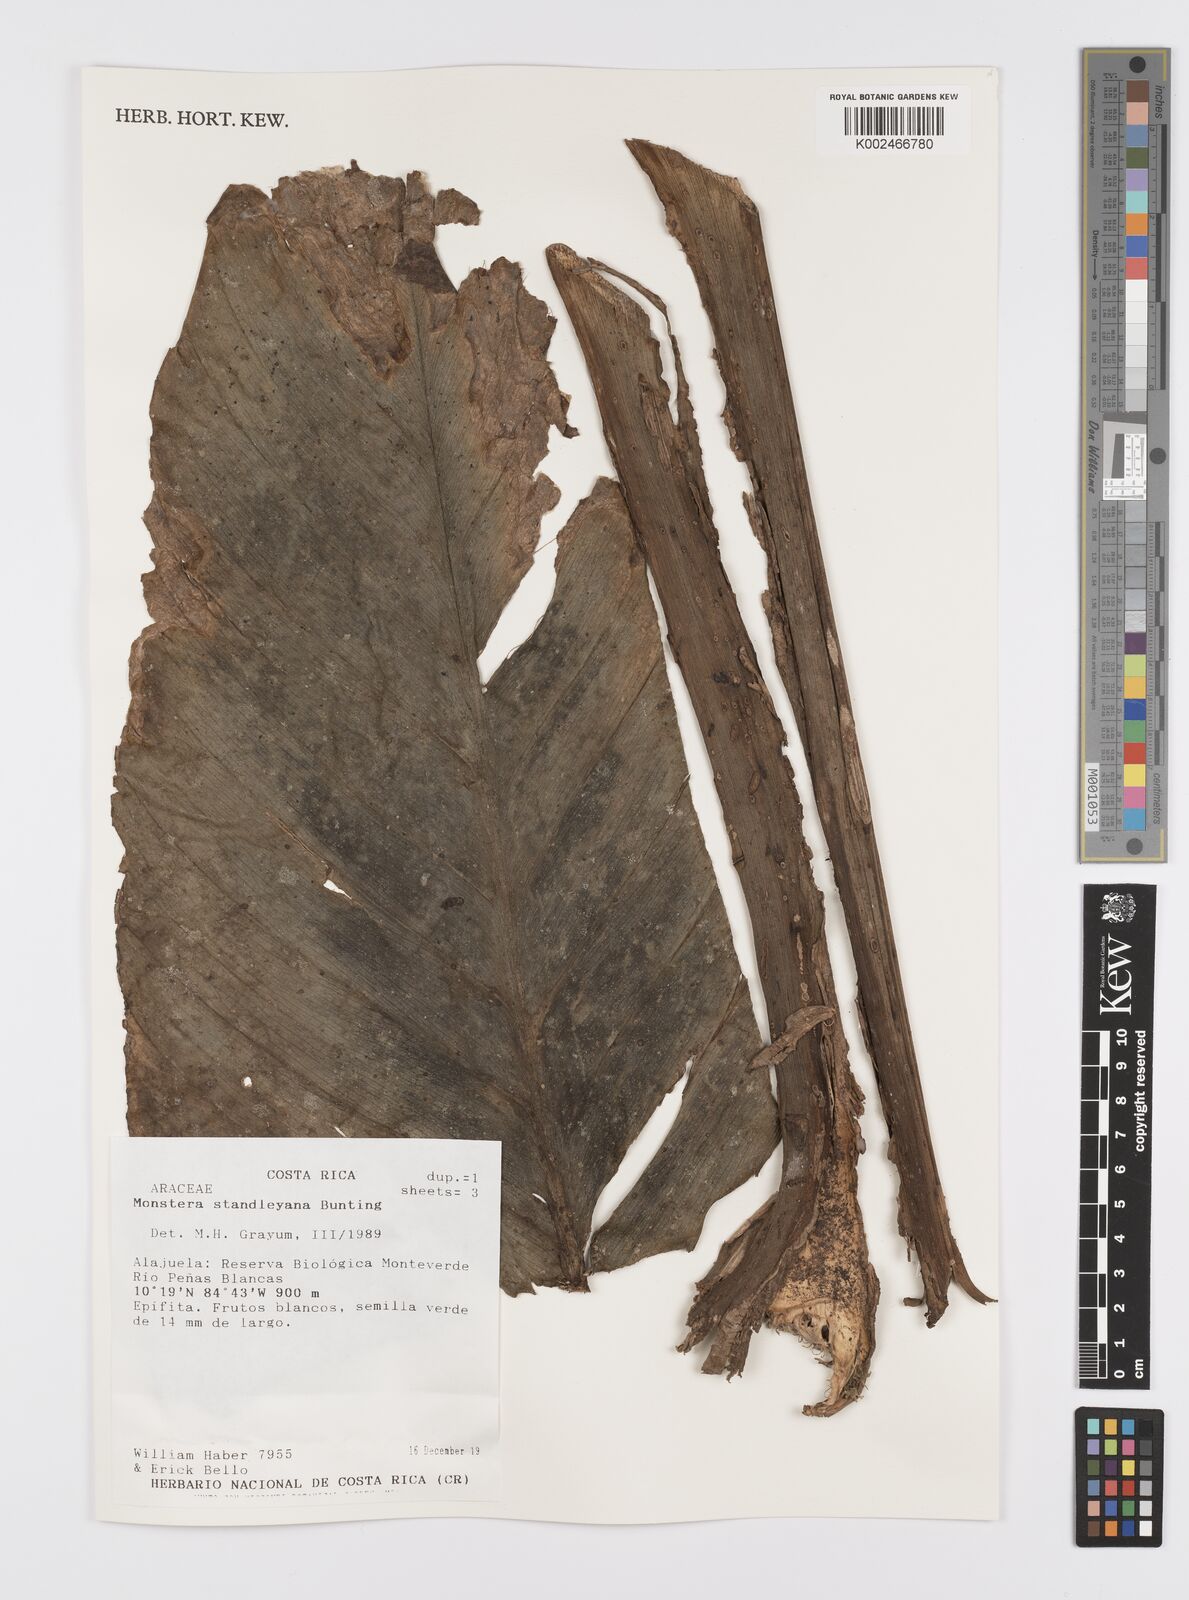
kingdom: Plantae
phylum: Tracheophyta
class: Liliopsida
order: Alismatales
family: Araceae
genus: Monstera
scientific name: Monstera standleyana
